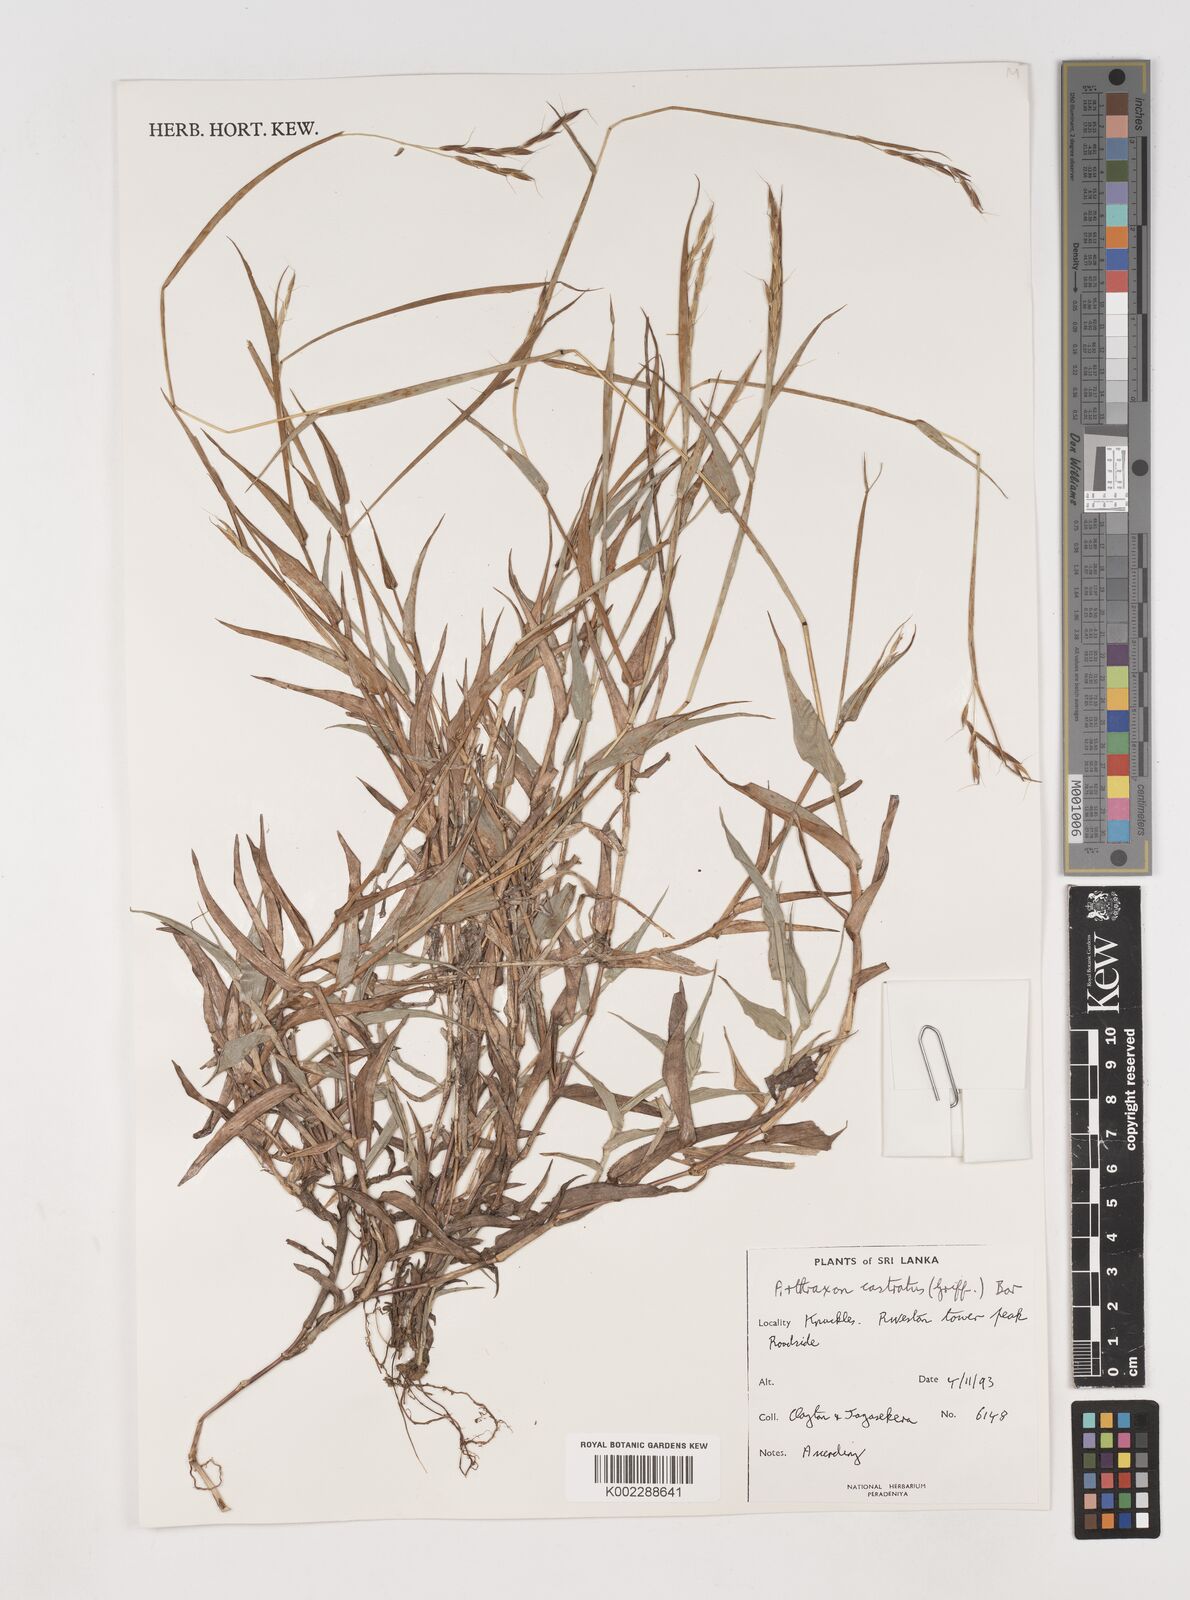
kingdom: Plantae
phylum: Tracheophyta
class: Liliopsida
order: Poales
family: Poaceae
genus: Arthraxon
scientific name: Arthraxon castratus
